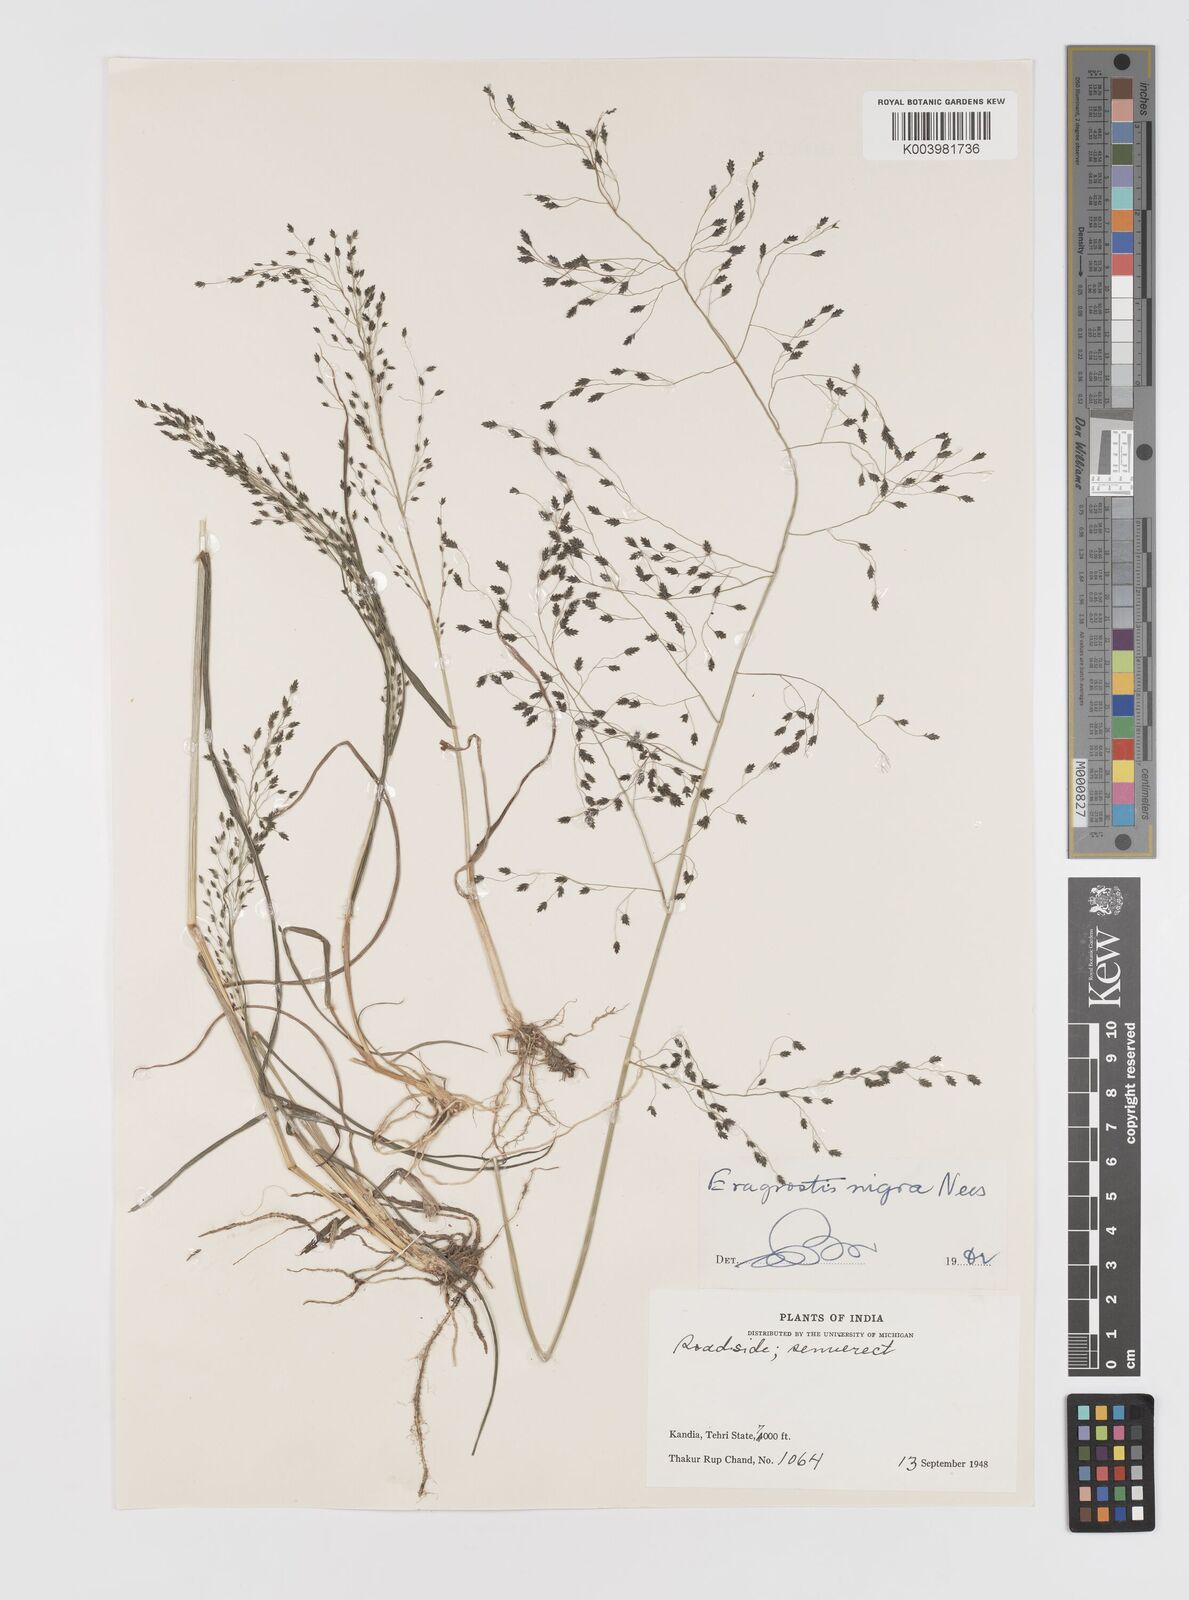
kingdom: Plantae
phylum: Tracheophyta
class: Liliopsida
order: Poales
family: Poaceae
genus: Eragrostis
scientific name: Eragrostis nigra
